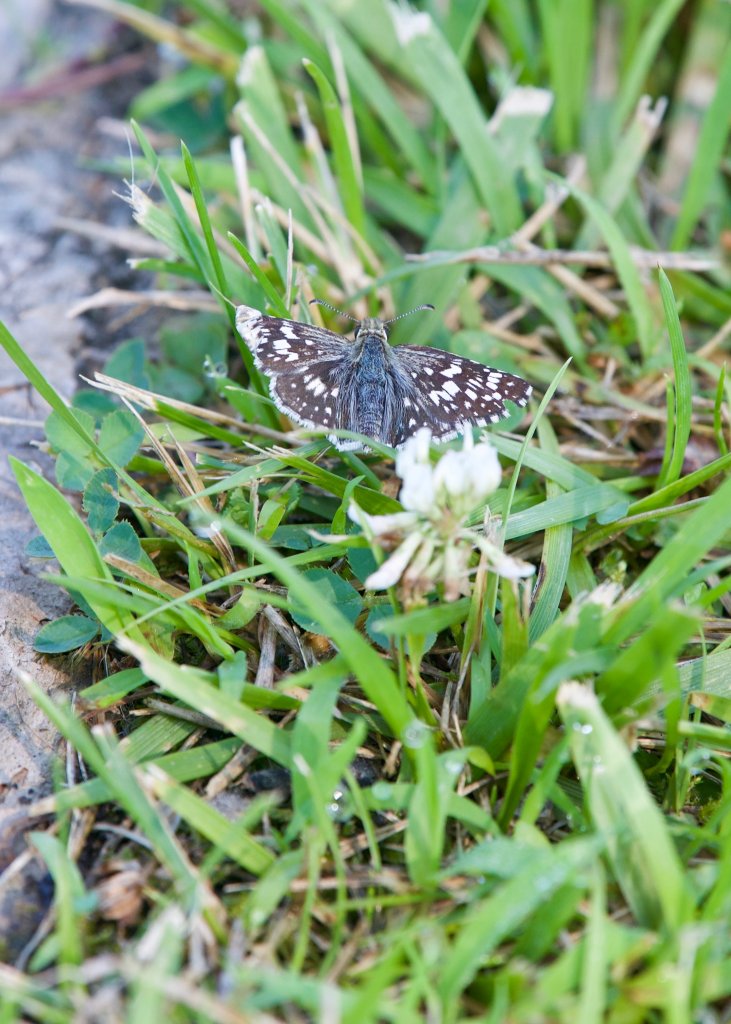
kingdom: Animalia
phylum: Arthropoda
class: Insecta
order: Lepidoptera
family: Hesperiidae
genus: Pyrgus
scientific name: Pyrgus communis
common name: Common Checkered-Skipper
